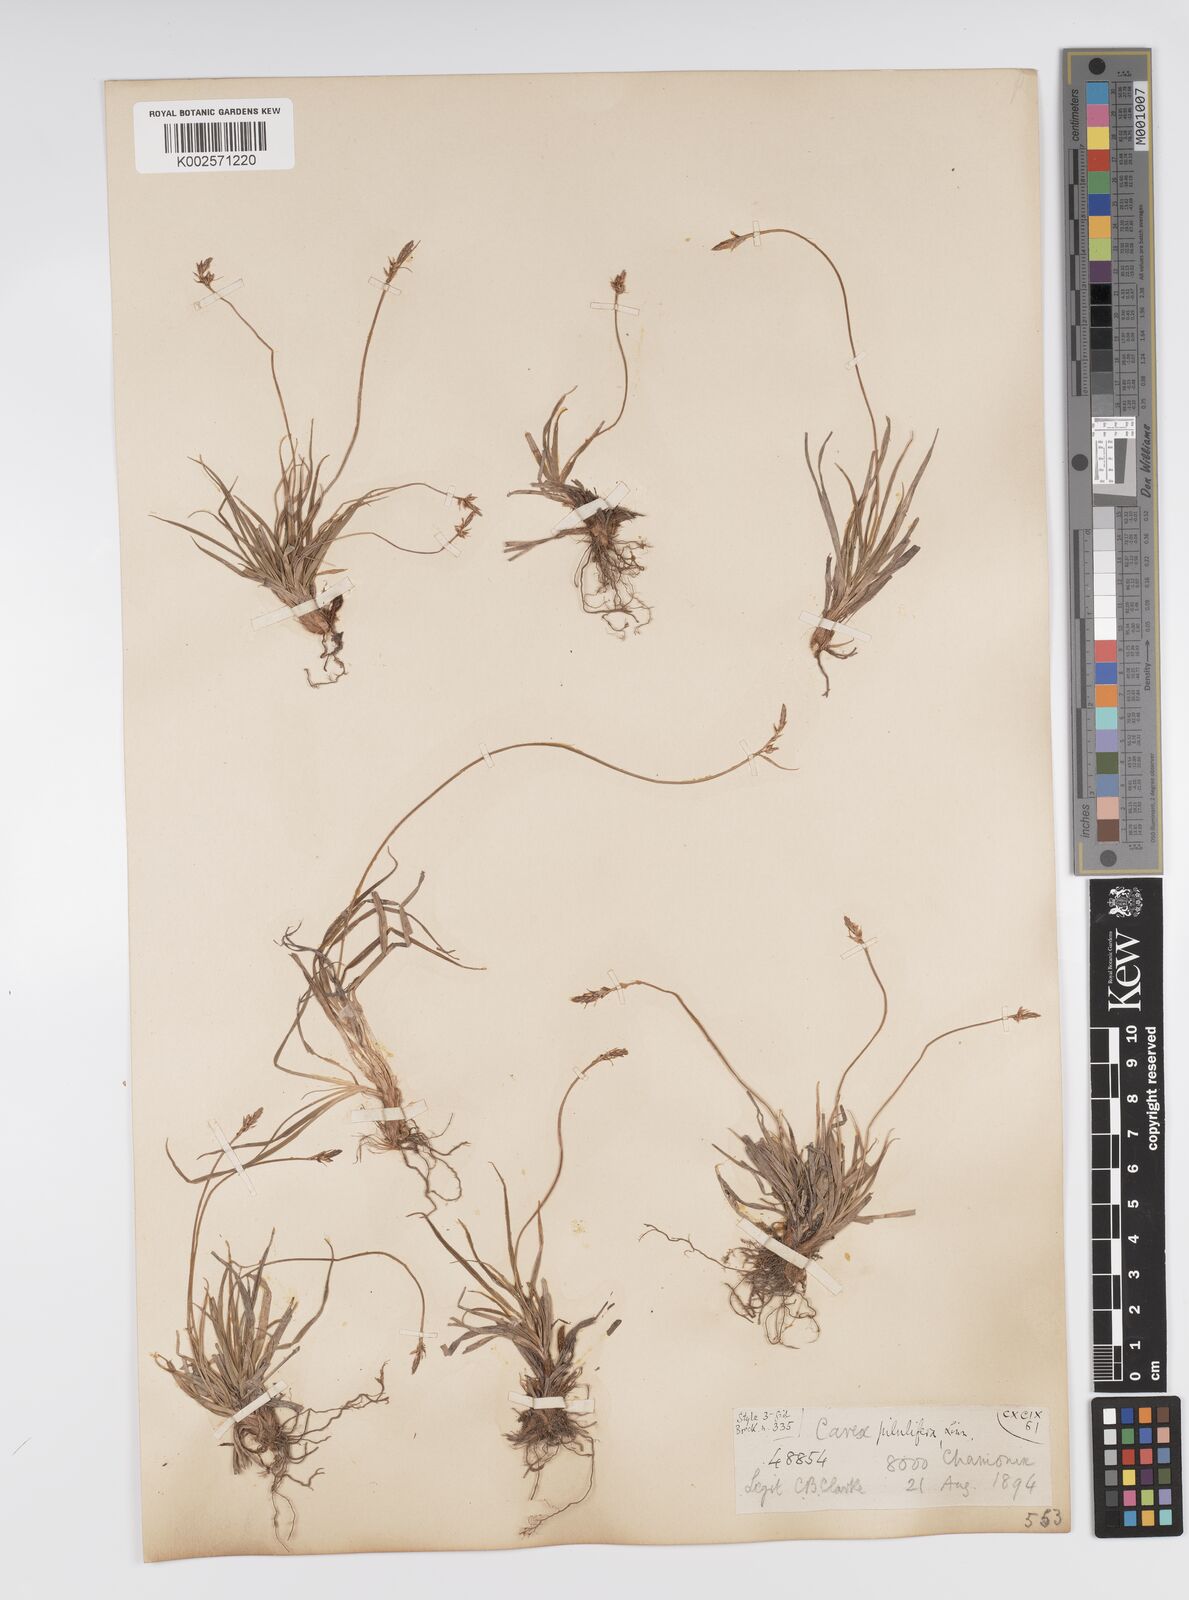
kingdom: Plantae
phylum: Tracheophyta
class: Liliopsida
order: Poales
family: Cyperaceae
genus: Carex
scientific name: Carex pilulifera
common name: Pill sedge
